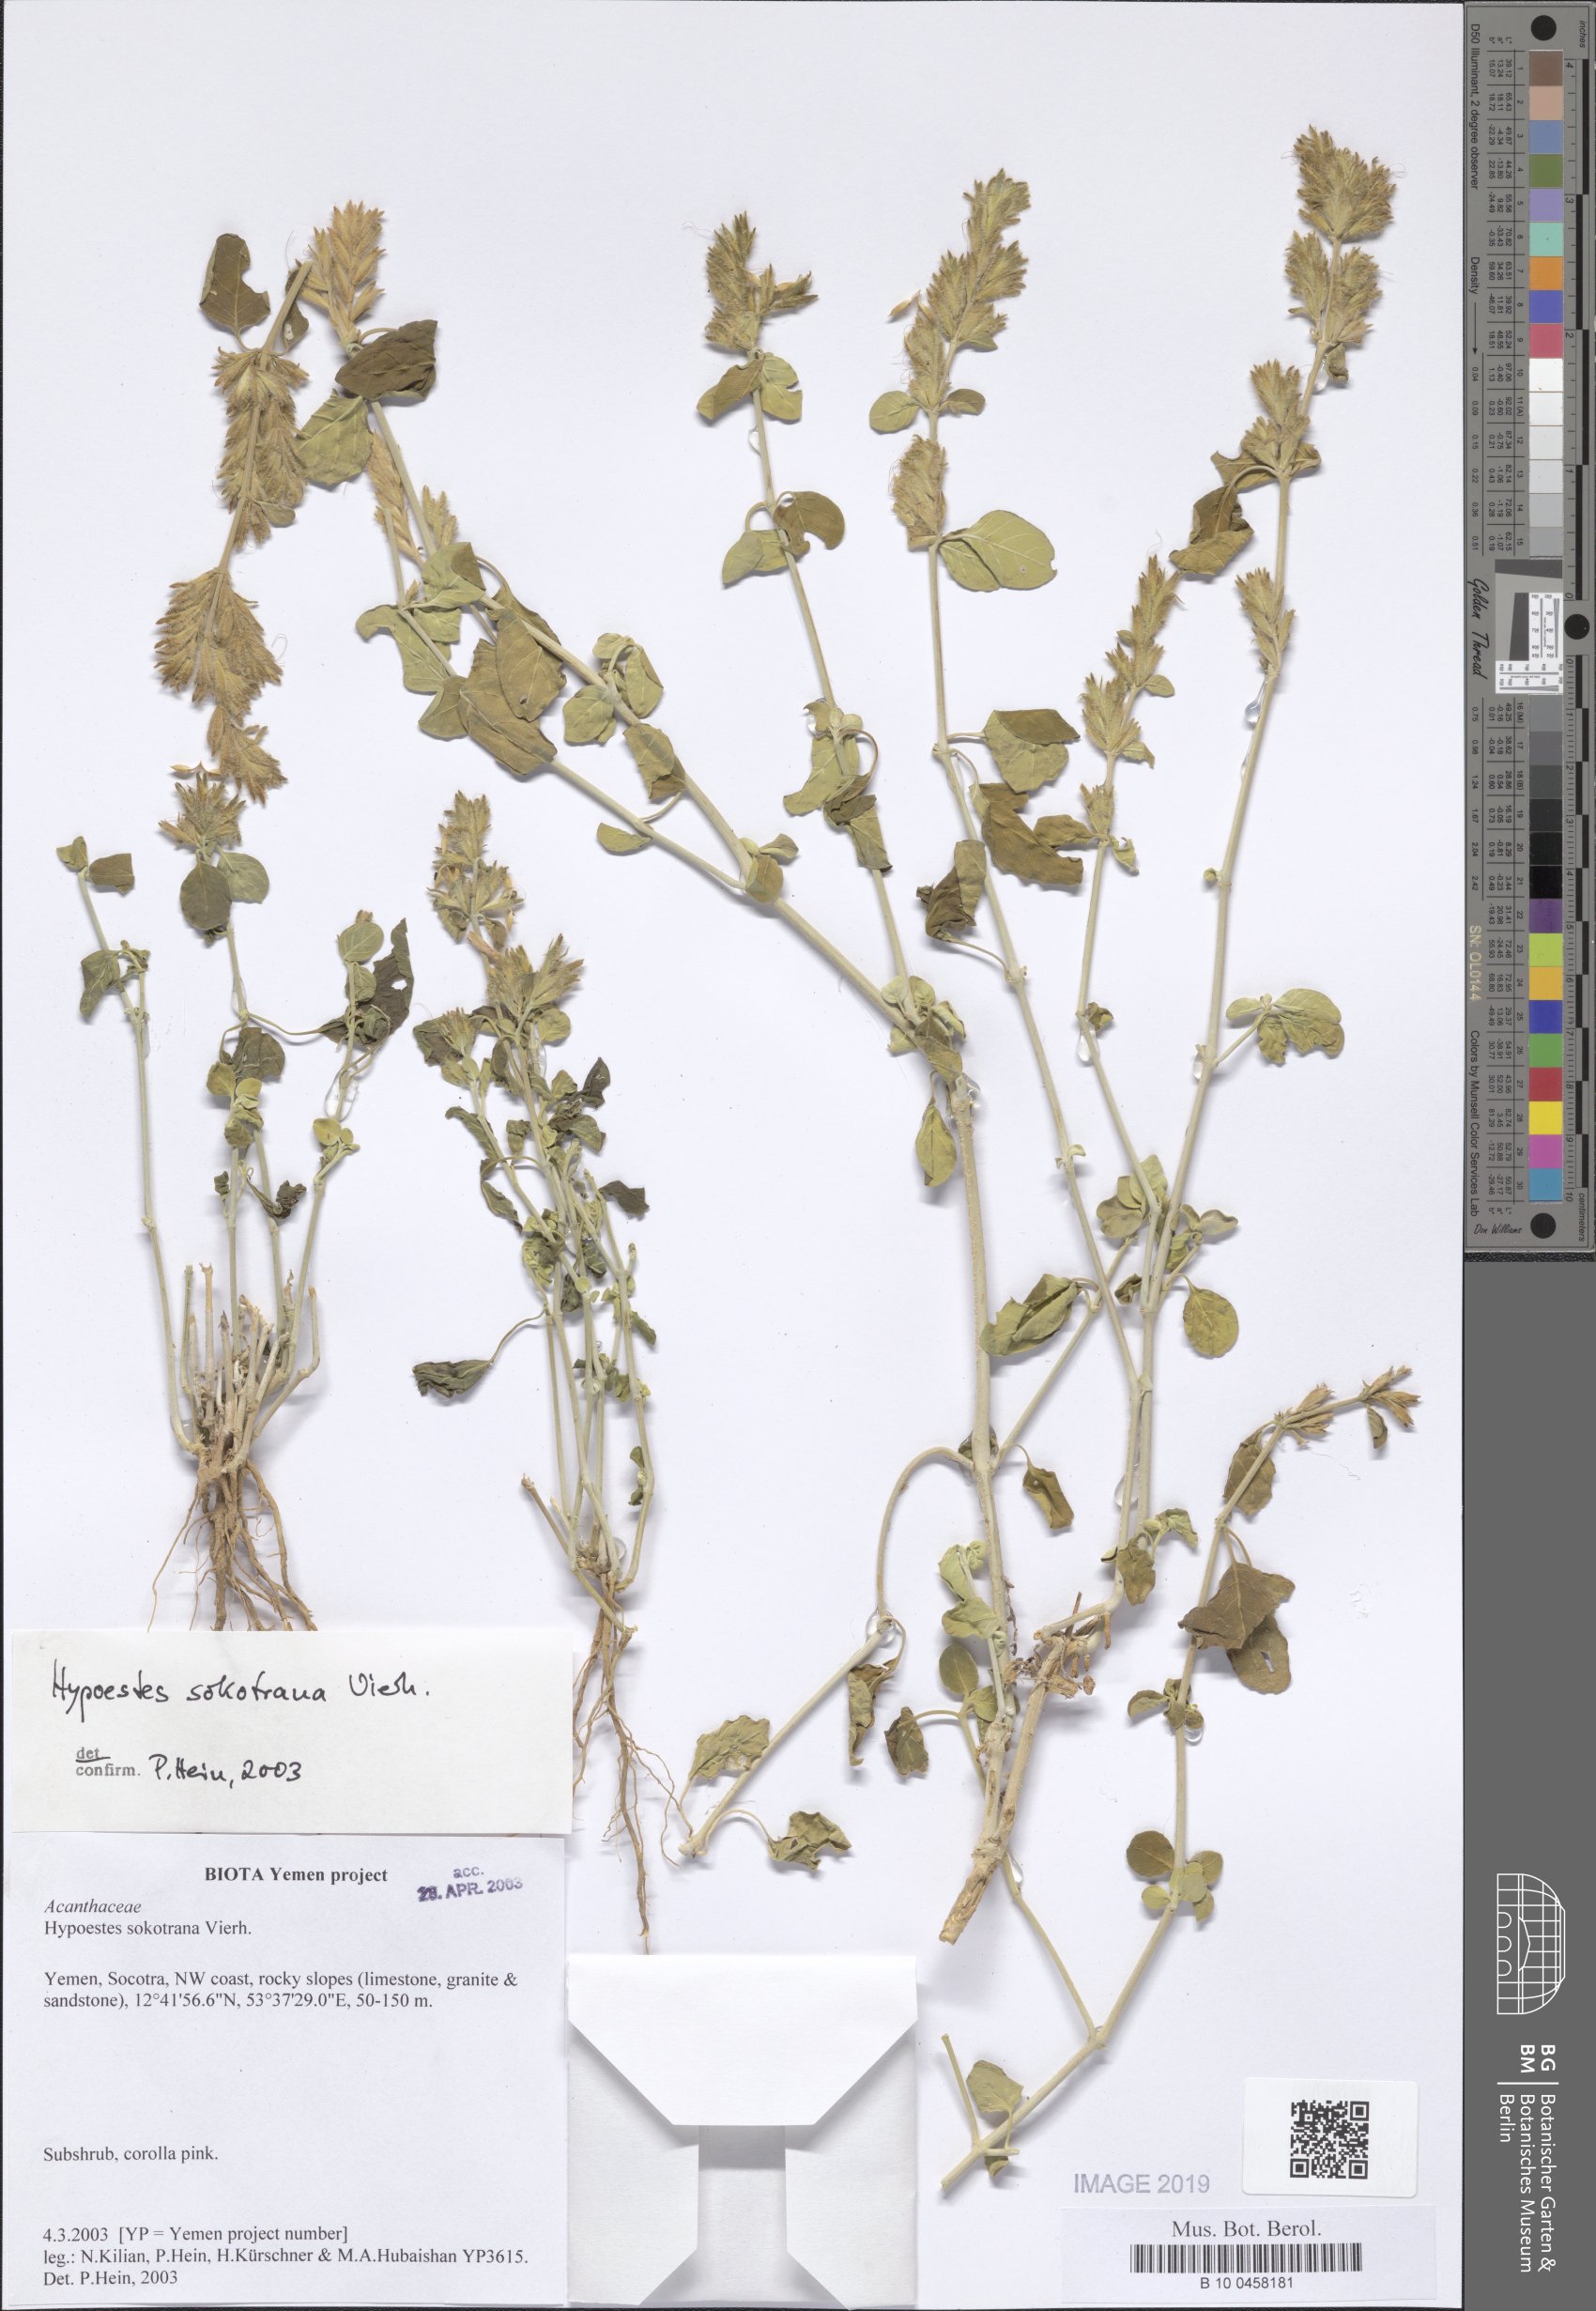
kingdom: Plantae
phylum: Tracheophyta
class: Magnoliopsida
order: Lamiales
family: Acanthaceae
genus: Hypoestes
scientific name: Hypoestes sokotrana
